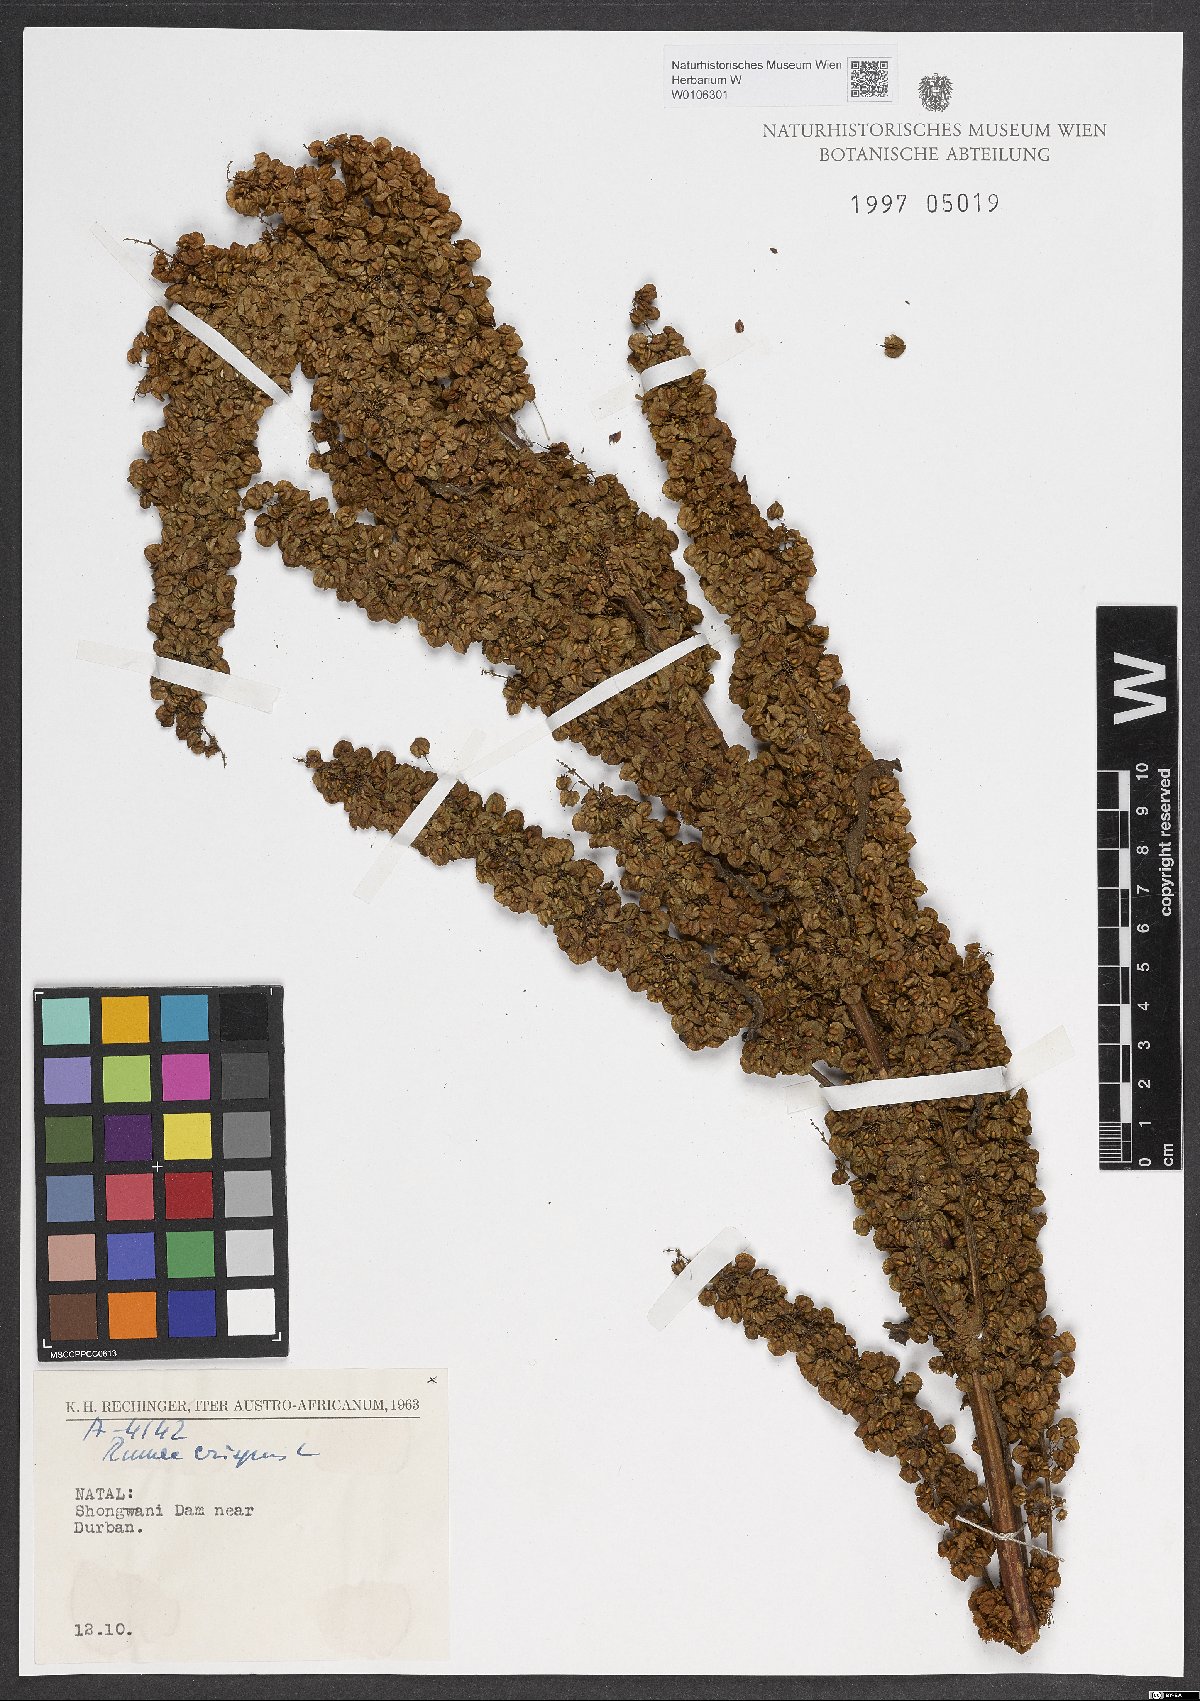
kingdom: Plantae
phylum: Tracheophyta
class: Magnoliopsida
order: Caryophyllales
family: Polygonaceae
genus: Rumex
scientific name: Rumex crispus
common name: Curled dock
